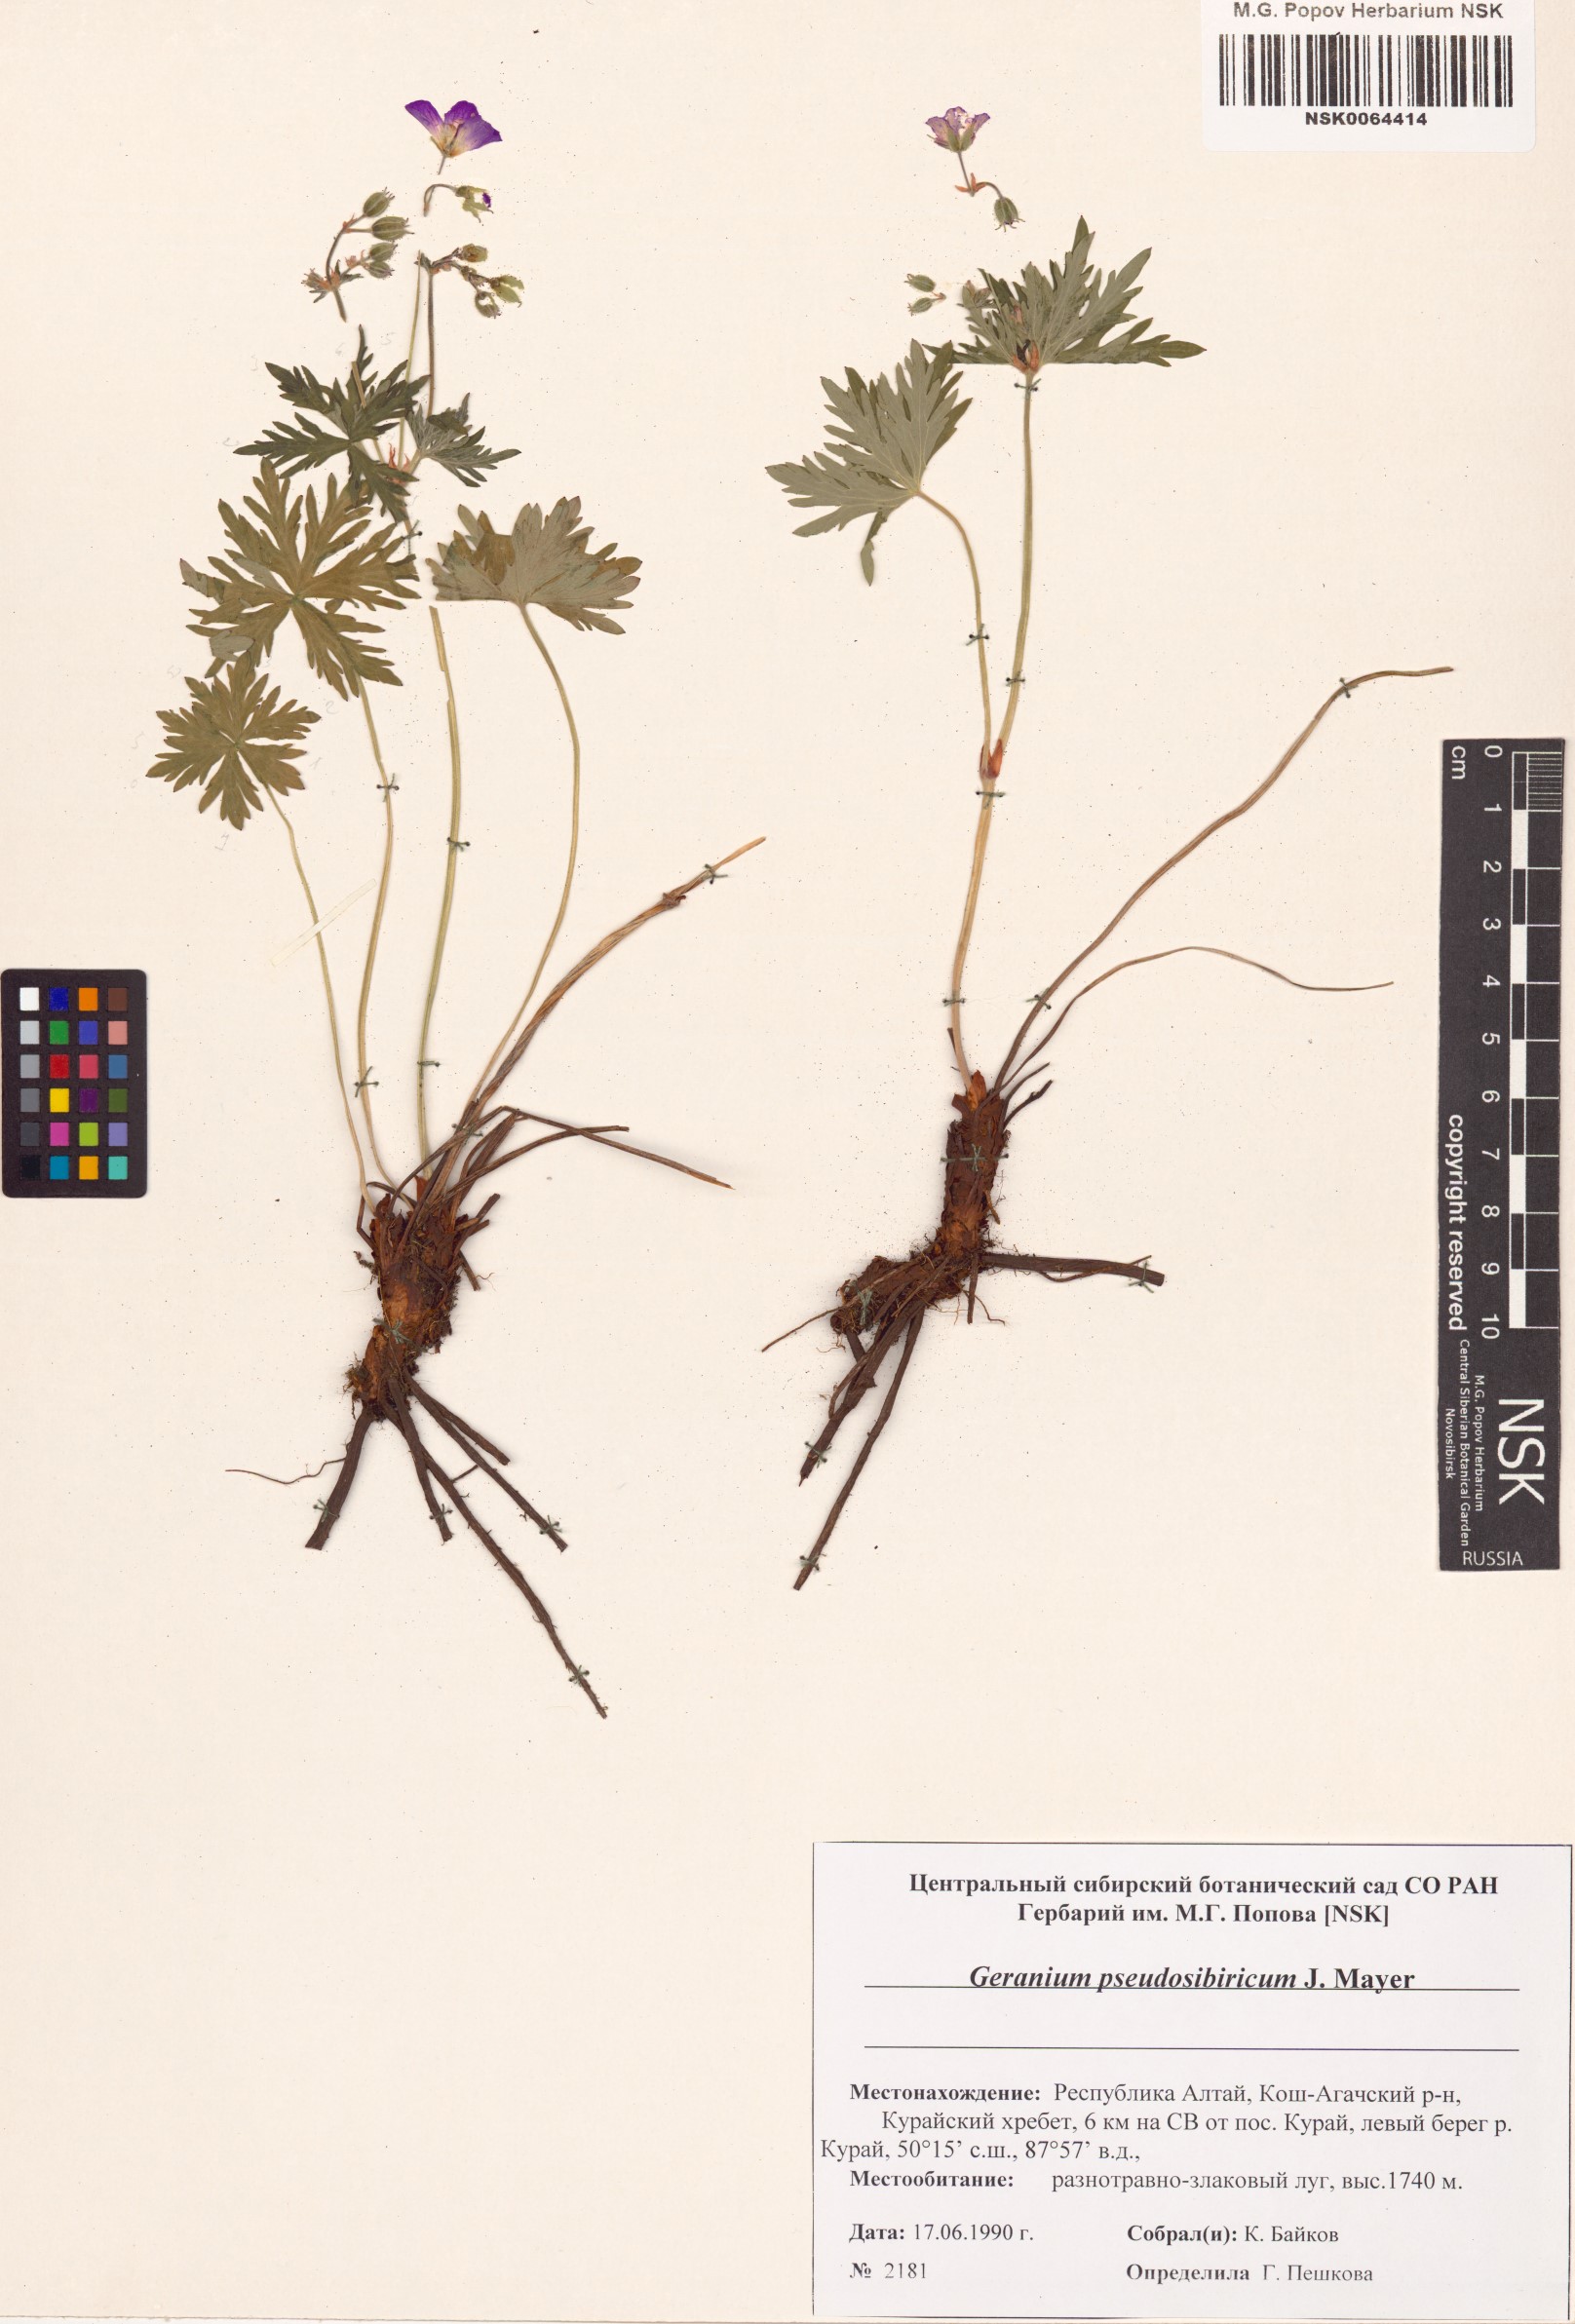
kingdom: Plantae
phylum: Tracheophyta
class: Magnoliopsida
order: Geraniales
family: Geraniaceae
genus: Geranium
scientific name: Geranium pseudosibiricum
